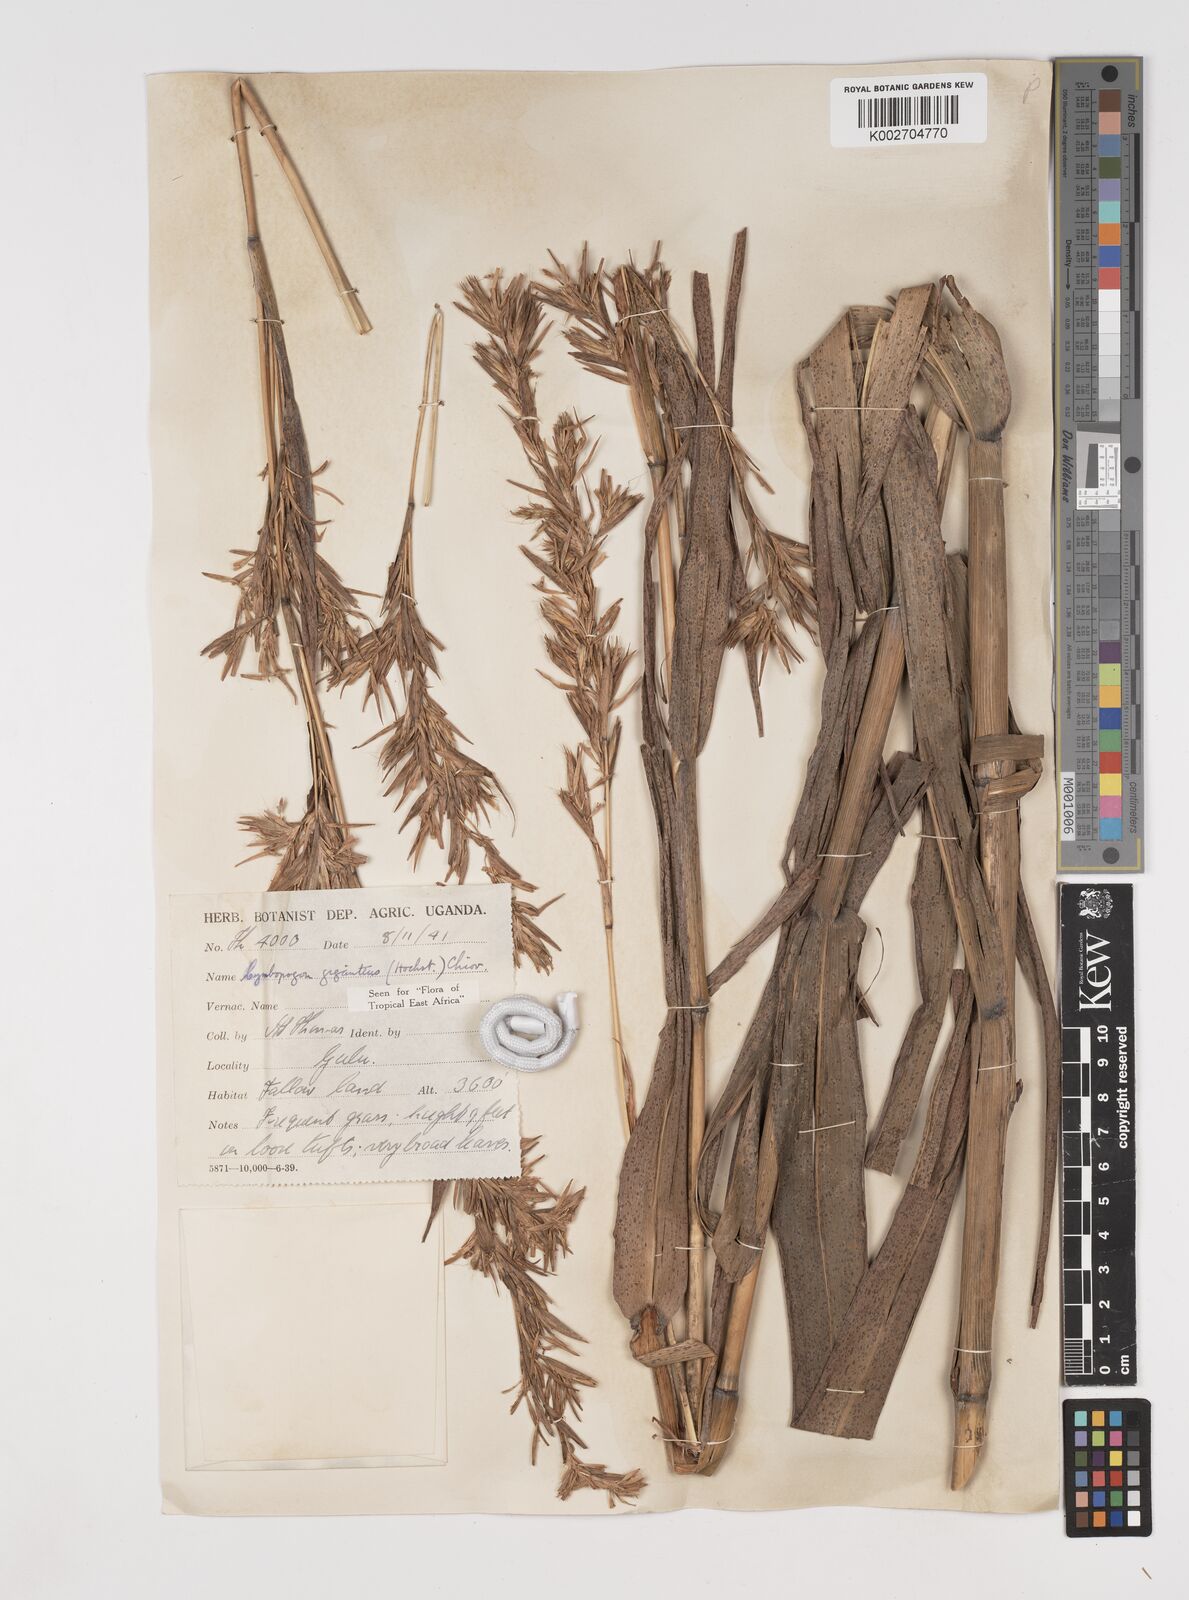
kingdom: Plantae
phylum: Tracheophyta
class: Liliopsida
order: Poales
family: Poaceae
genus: Cymbopogon
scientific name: Cymbopogon giganteus
